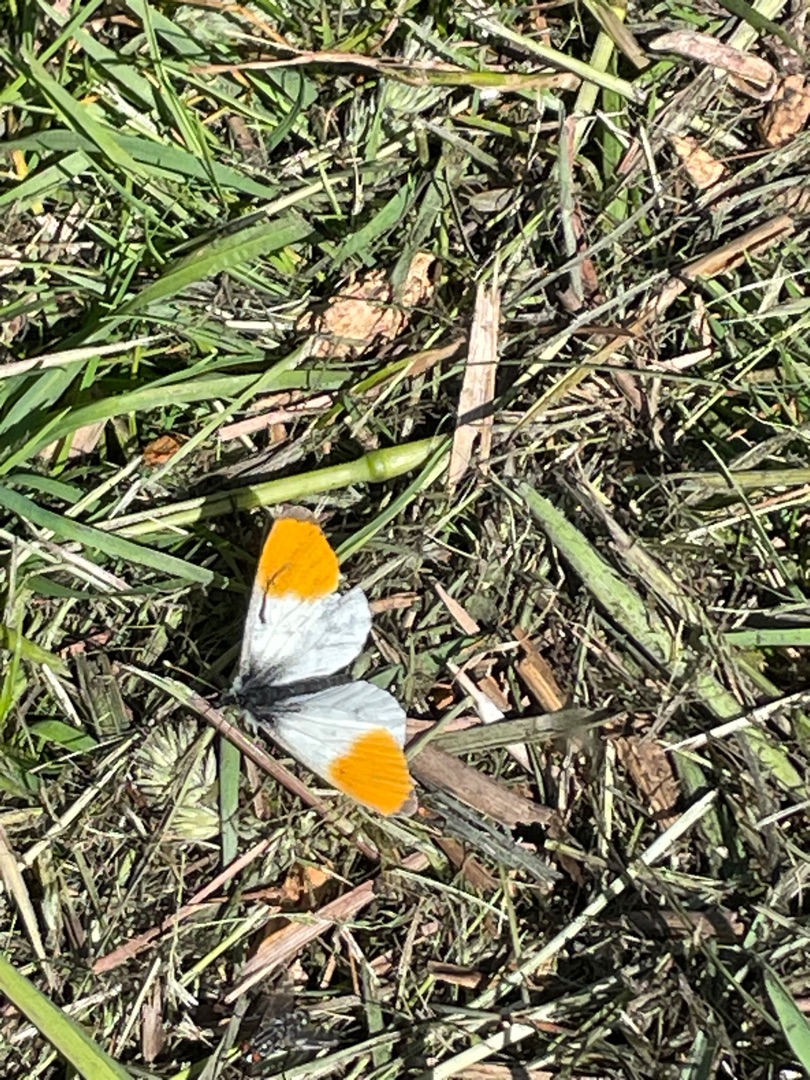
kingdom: Animalia
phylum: Arthropoda
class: Insecta
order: Lepidoptera
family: Pieridae
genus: Anthocharis
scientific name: Anthocharis cardamines
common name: Aurora
